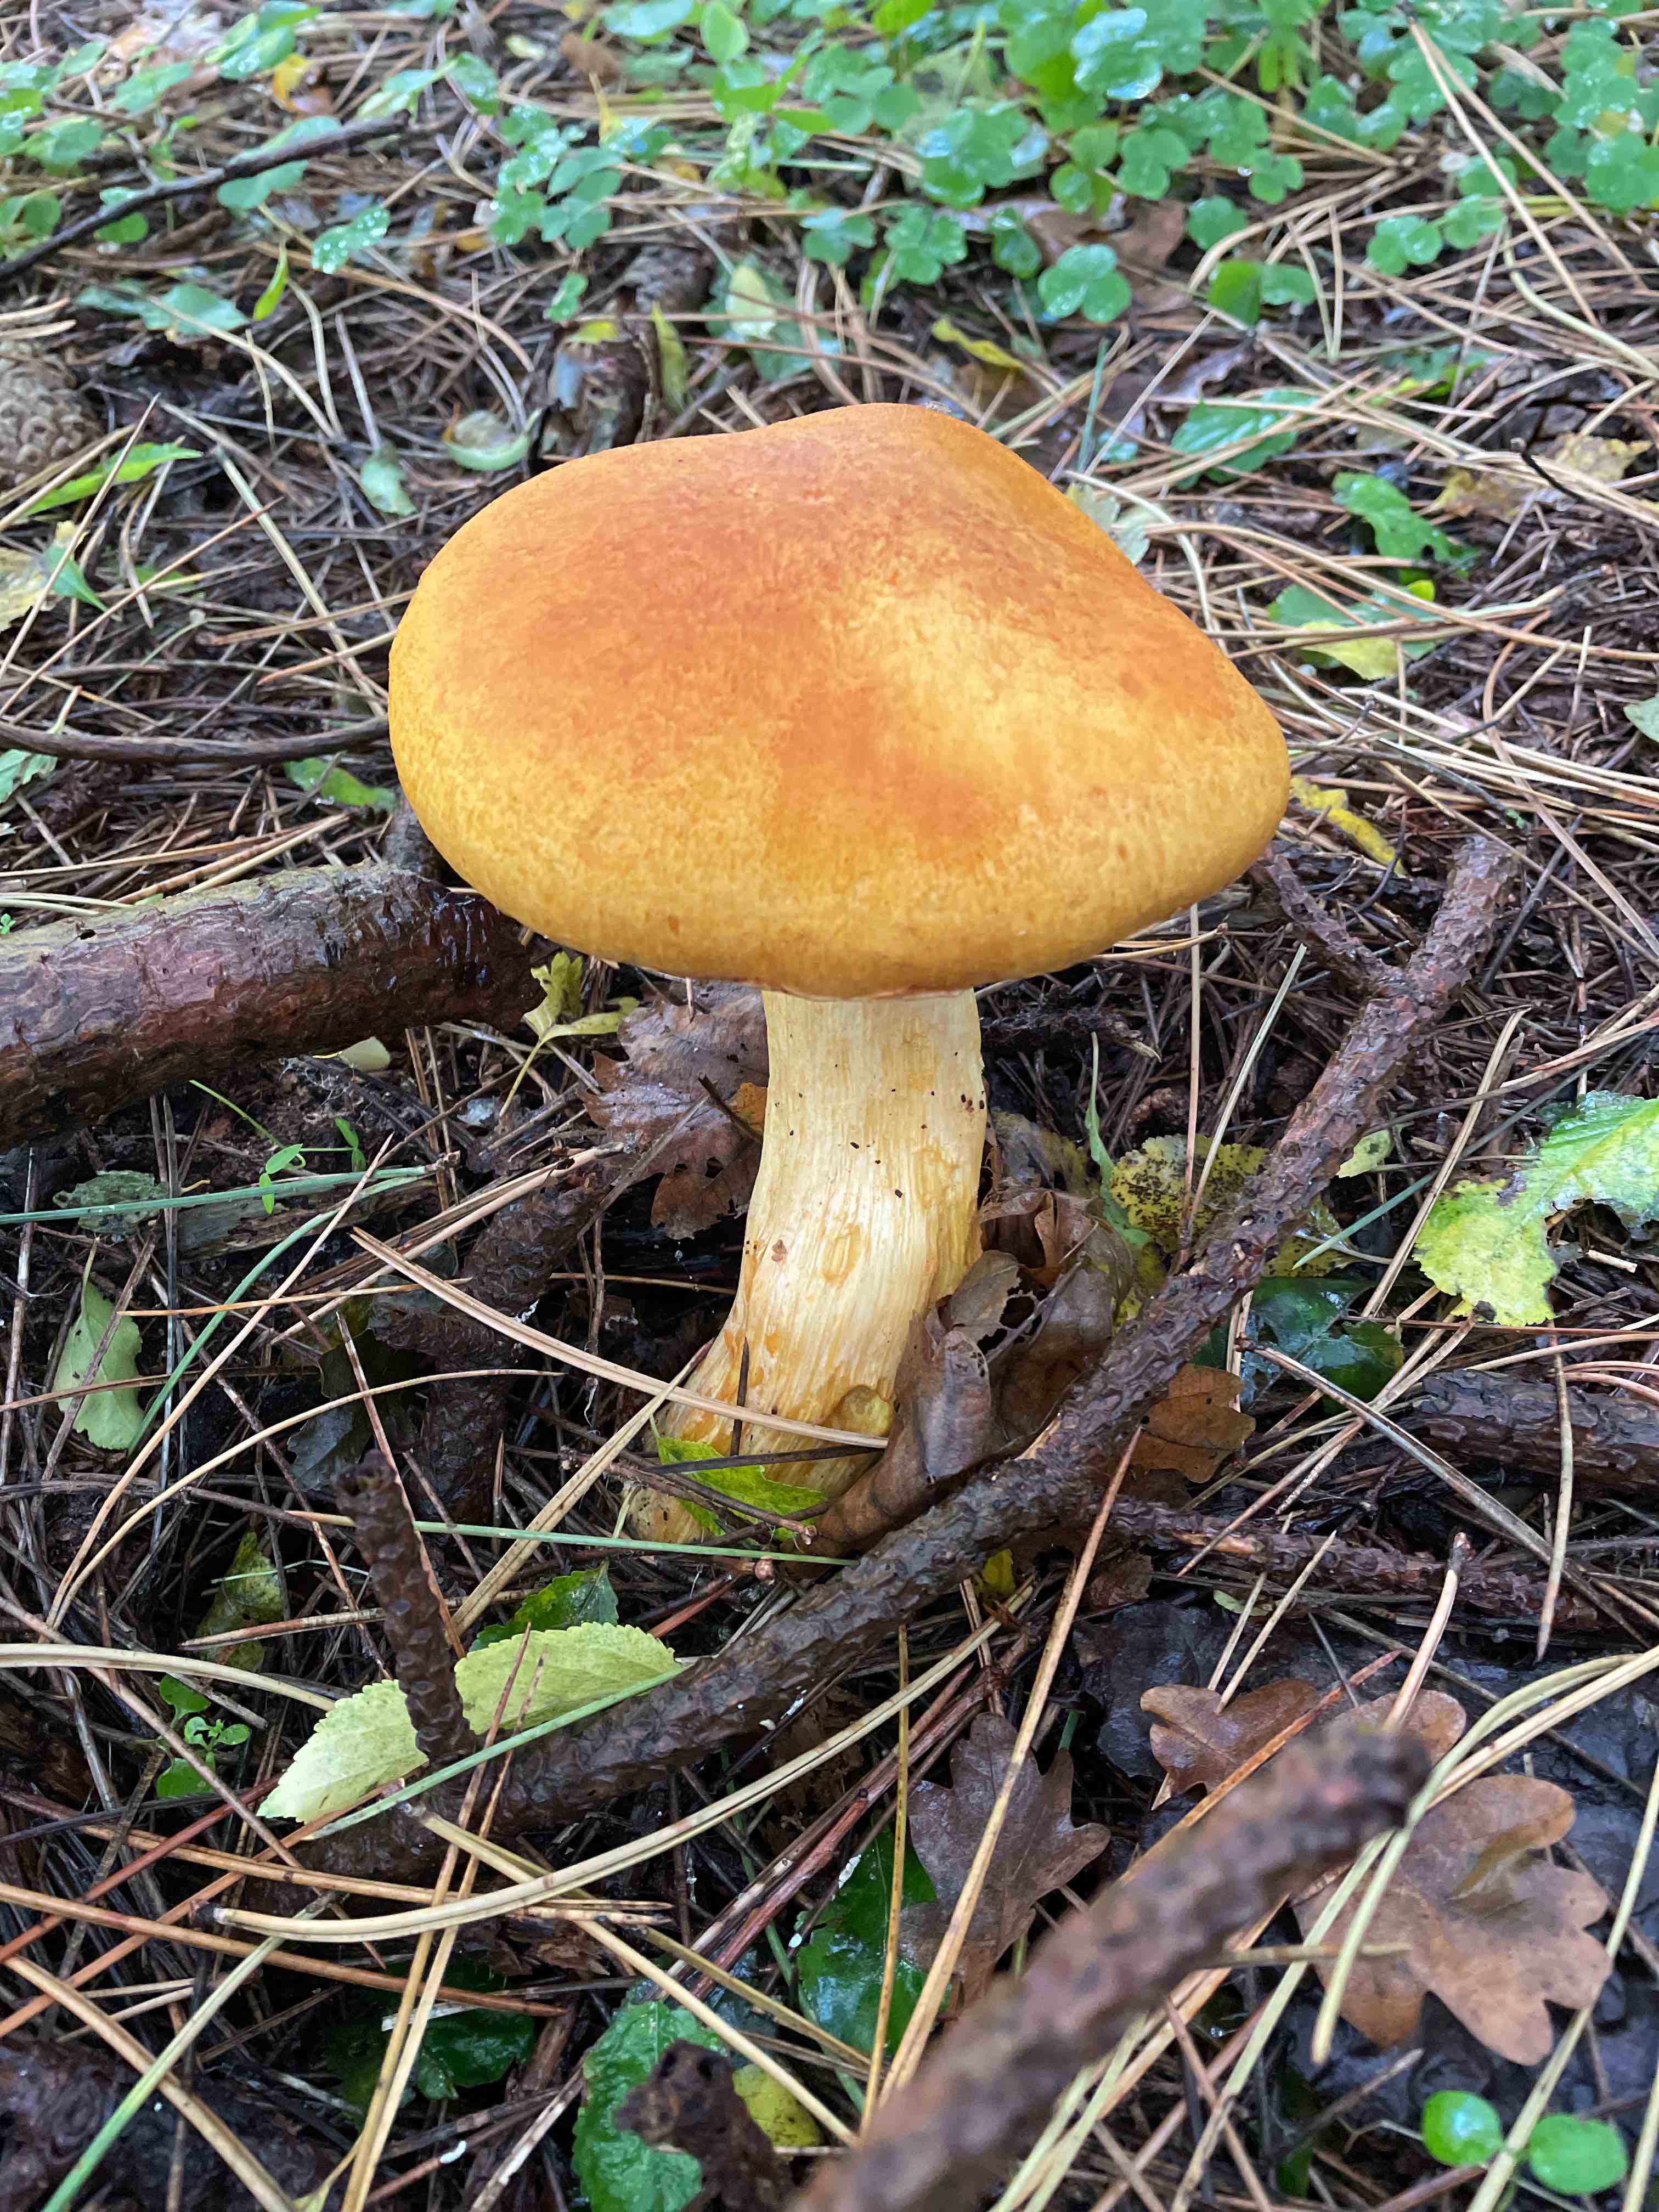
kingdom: Fungi
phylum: Basidiomycota
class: Agaricomycetes
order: Agaricales
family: Hymenogastraceae
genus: Gymnopilus
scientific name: Gymnopilus spectabilis
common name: fibret flammehat
